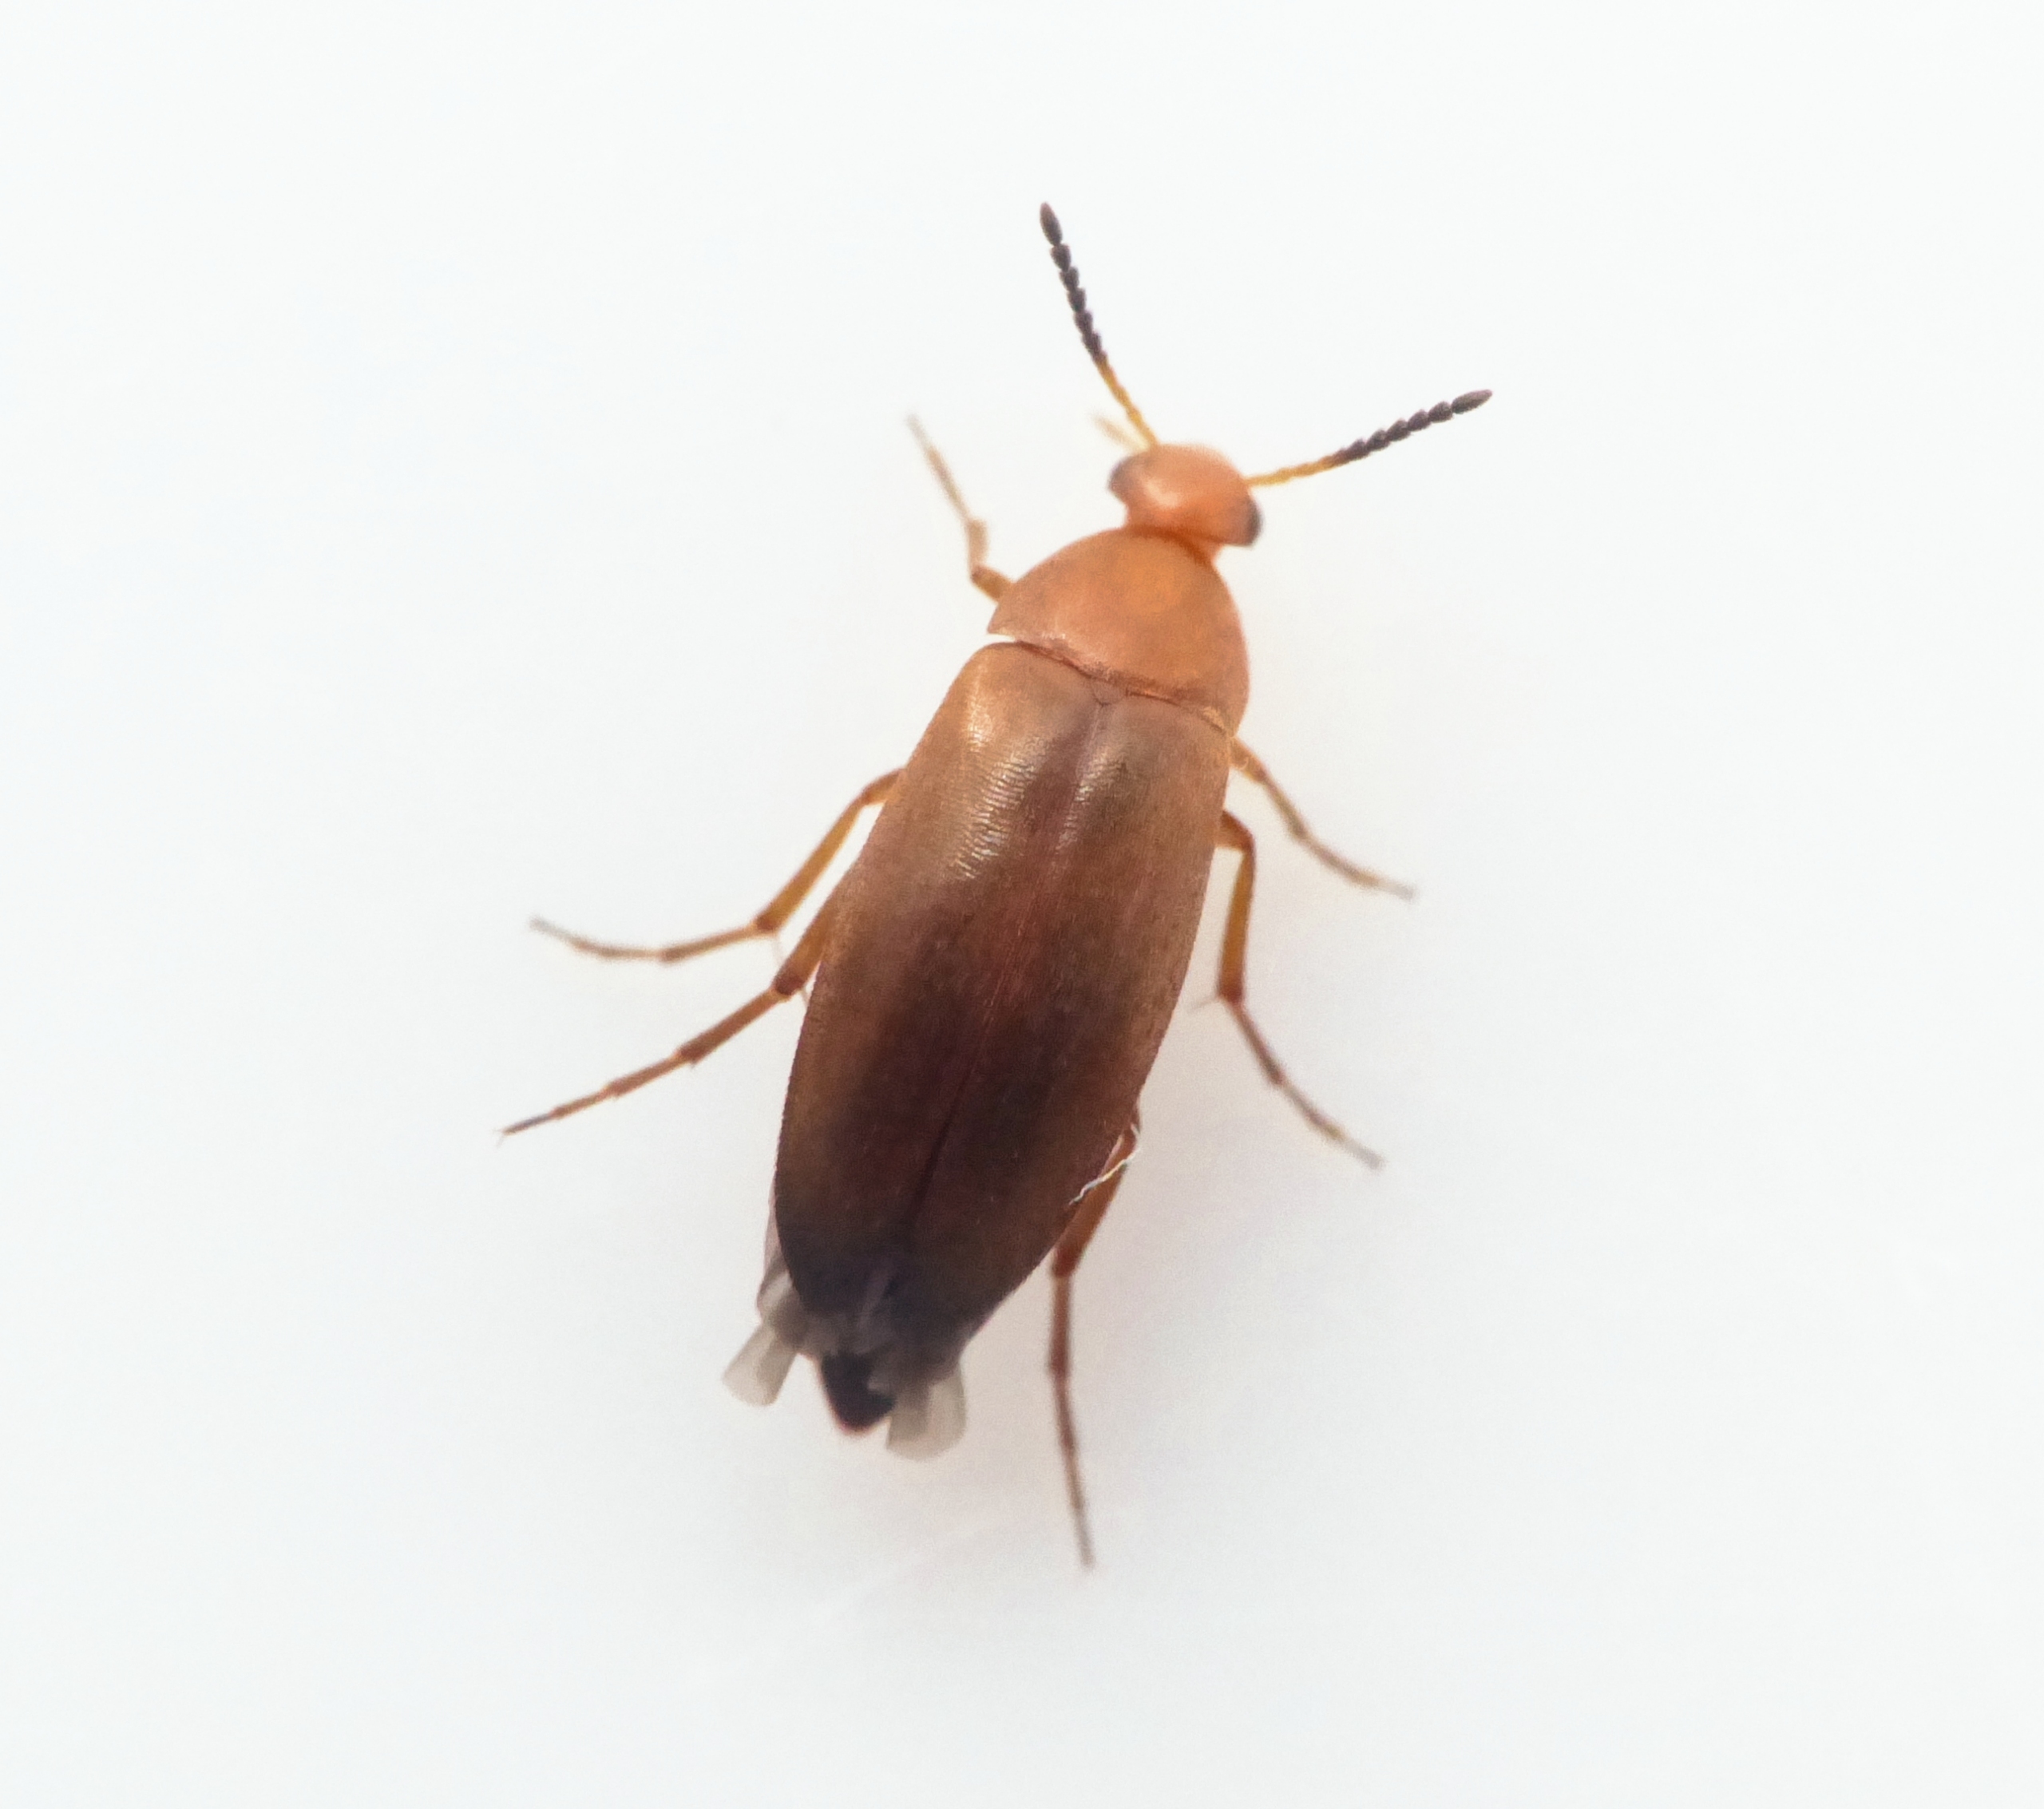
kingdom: Animalia
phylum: Arthropoda
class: Insecta
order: Coleoptera
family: Scraptiidae
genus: Anaspis
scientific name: Anaspis flava
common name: Gul spidshale
